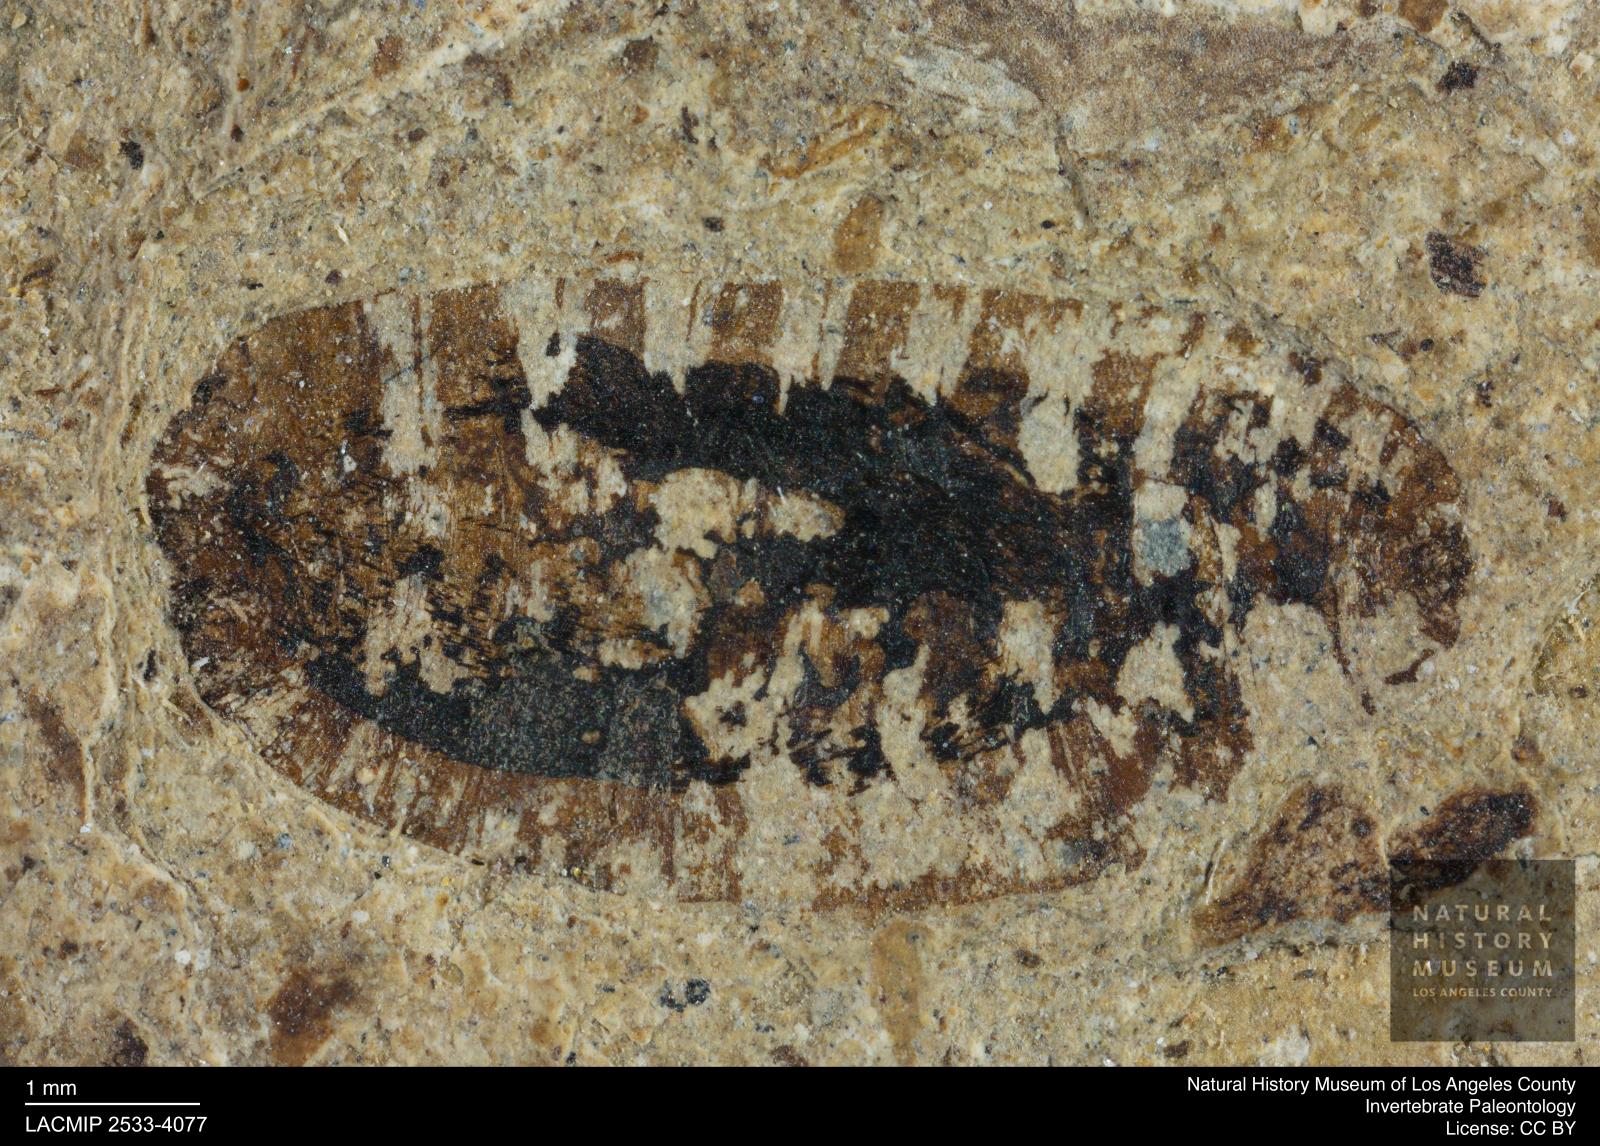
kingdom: Animalia
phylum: Arthropoda
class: Insecta
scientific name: Insecta
